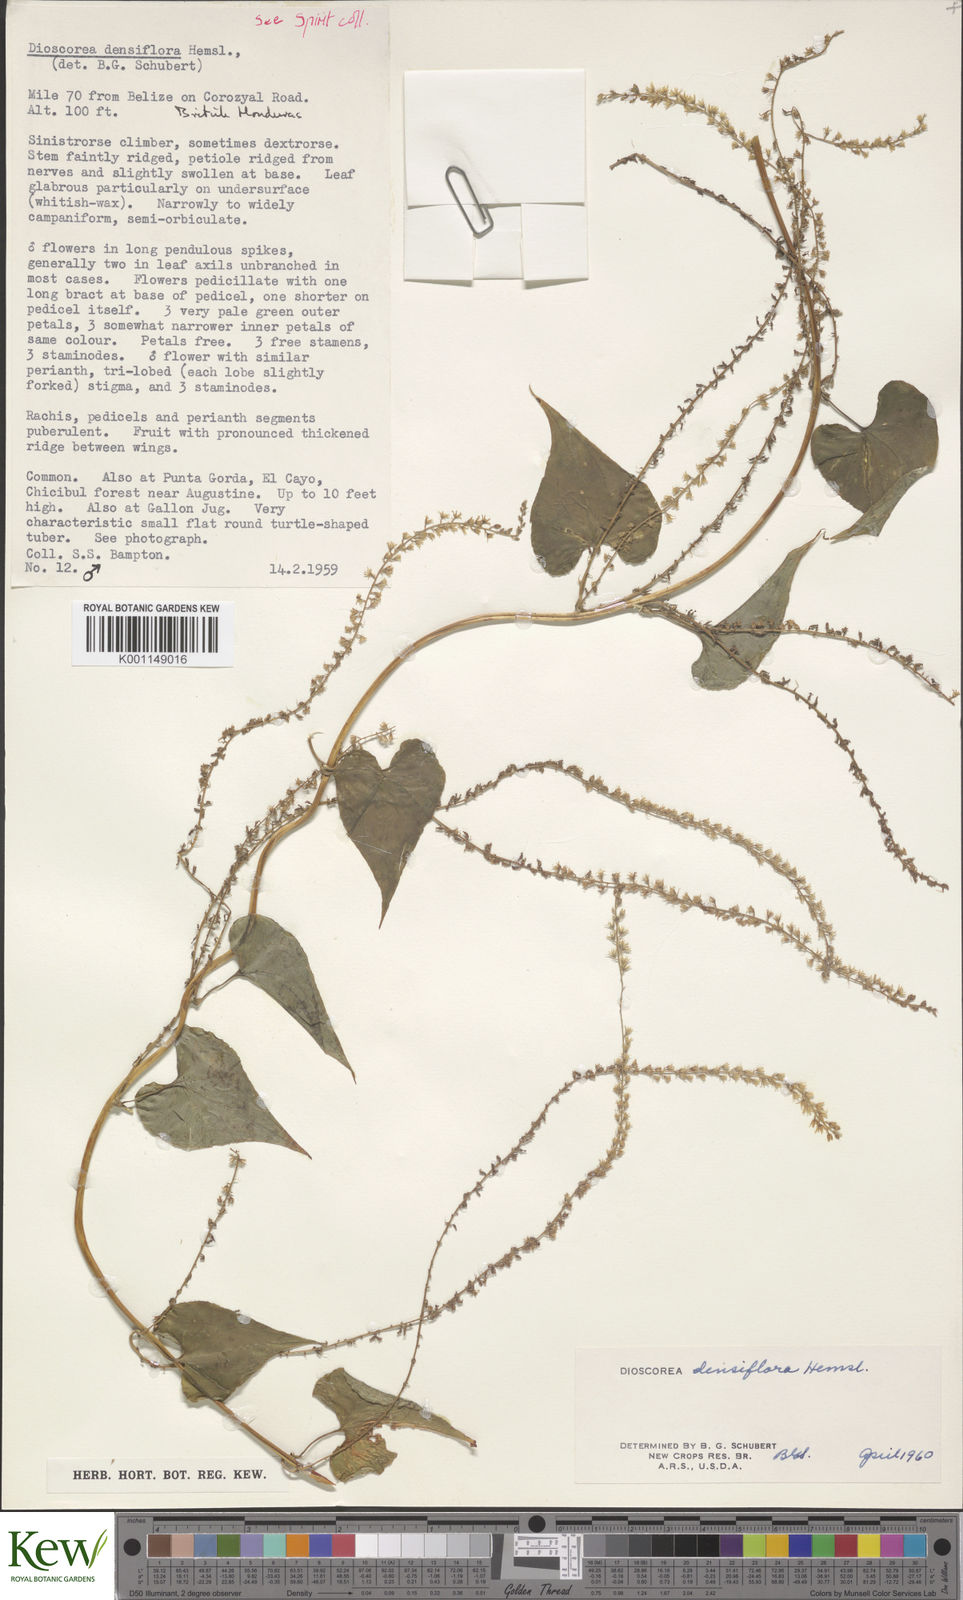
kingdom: Plantae
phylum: Tracheophyta
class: Liliopsida
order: Dioscoreales
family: Dioscoreaceae
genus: Dioscorea
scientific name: Dioscorea densiflora
